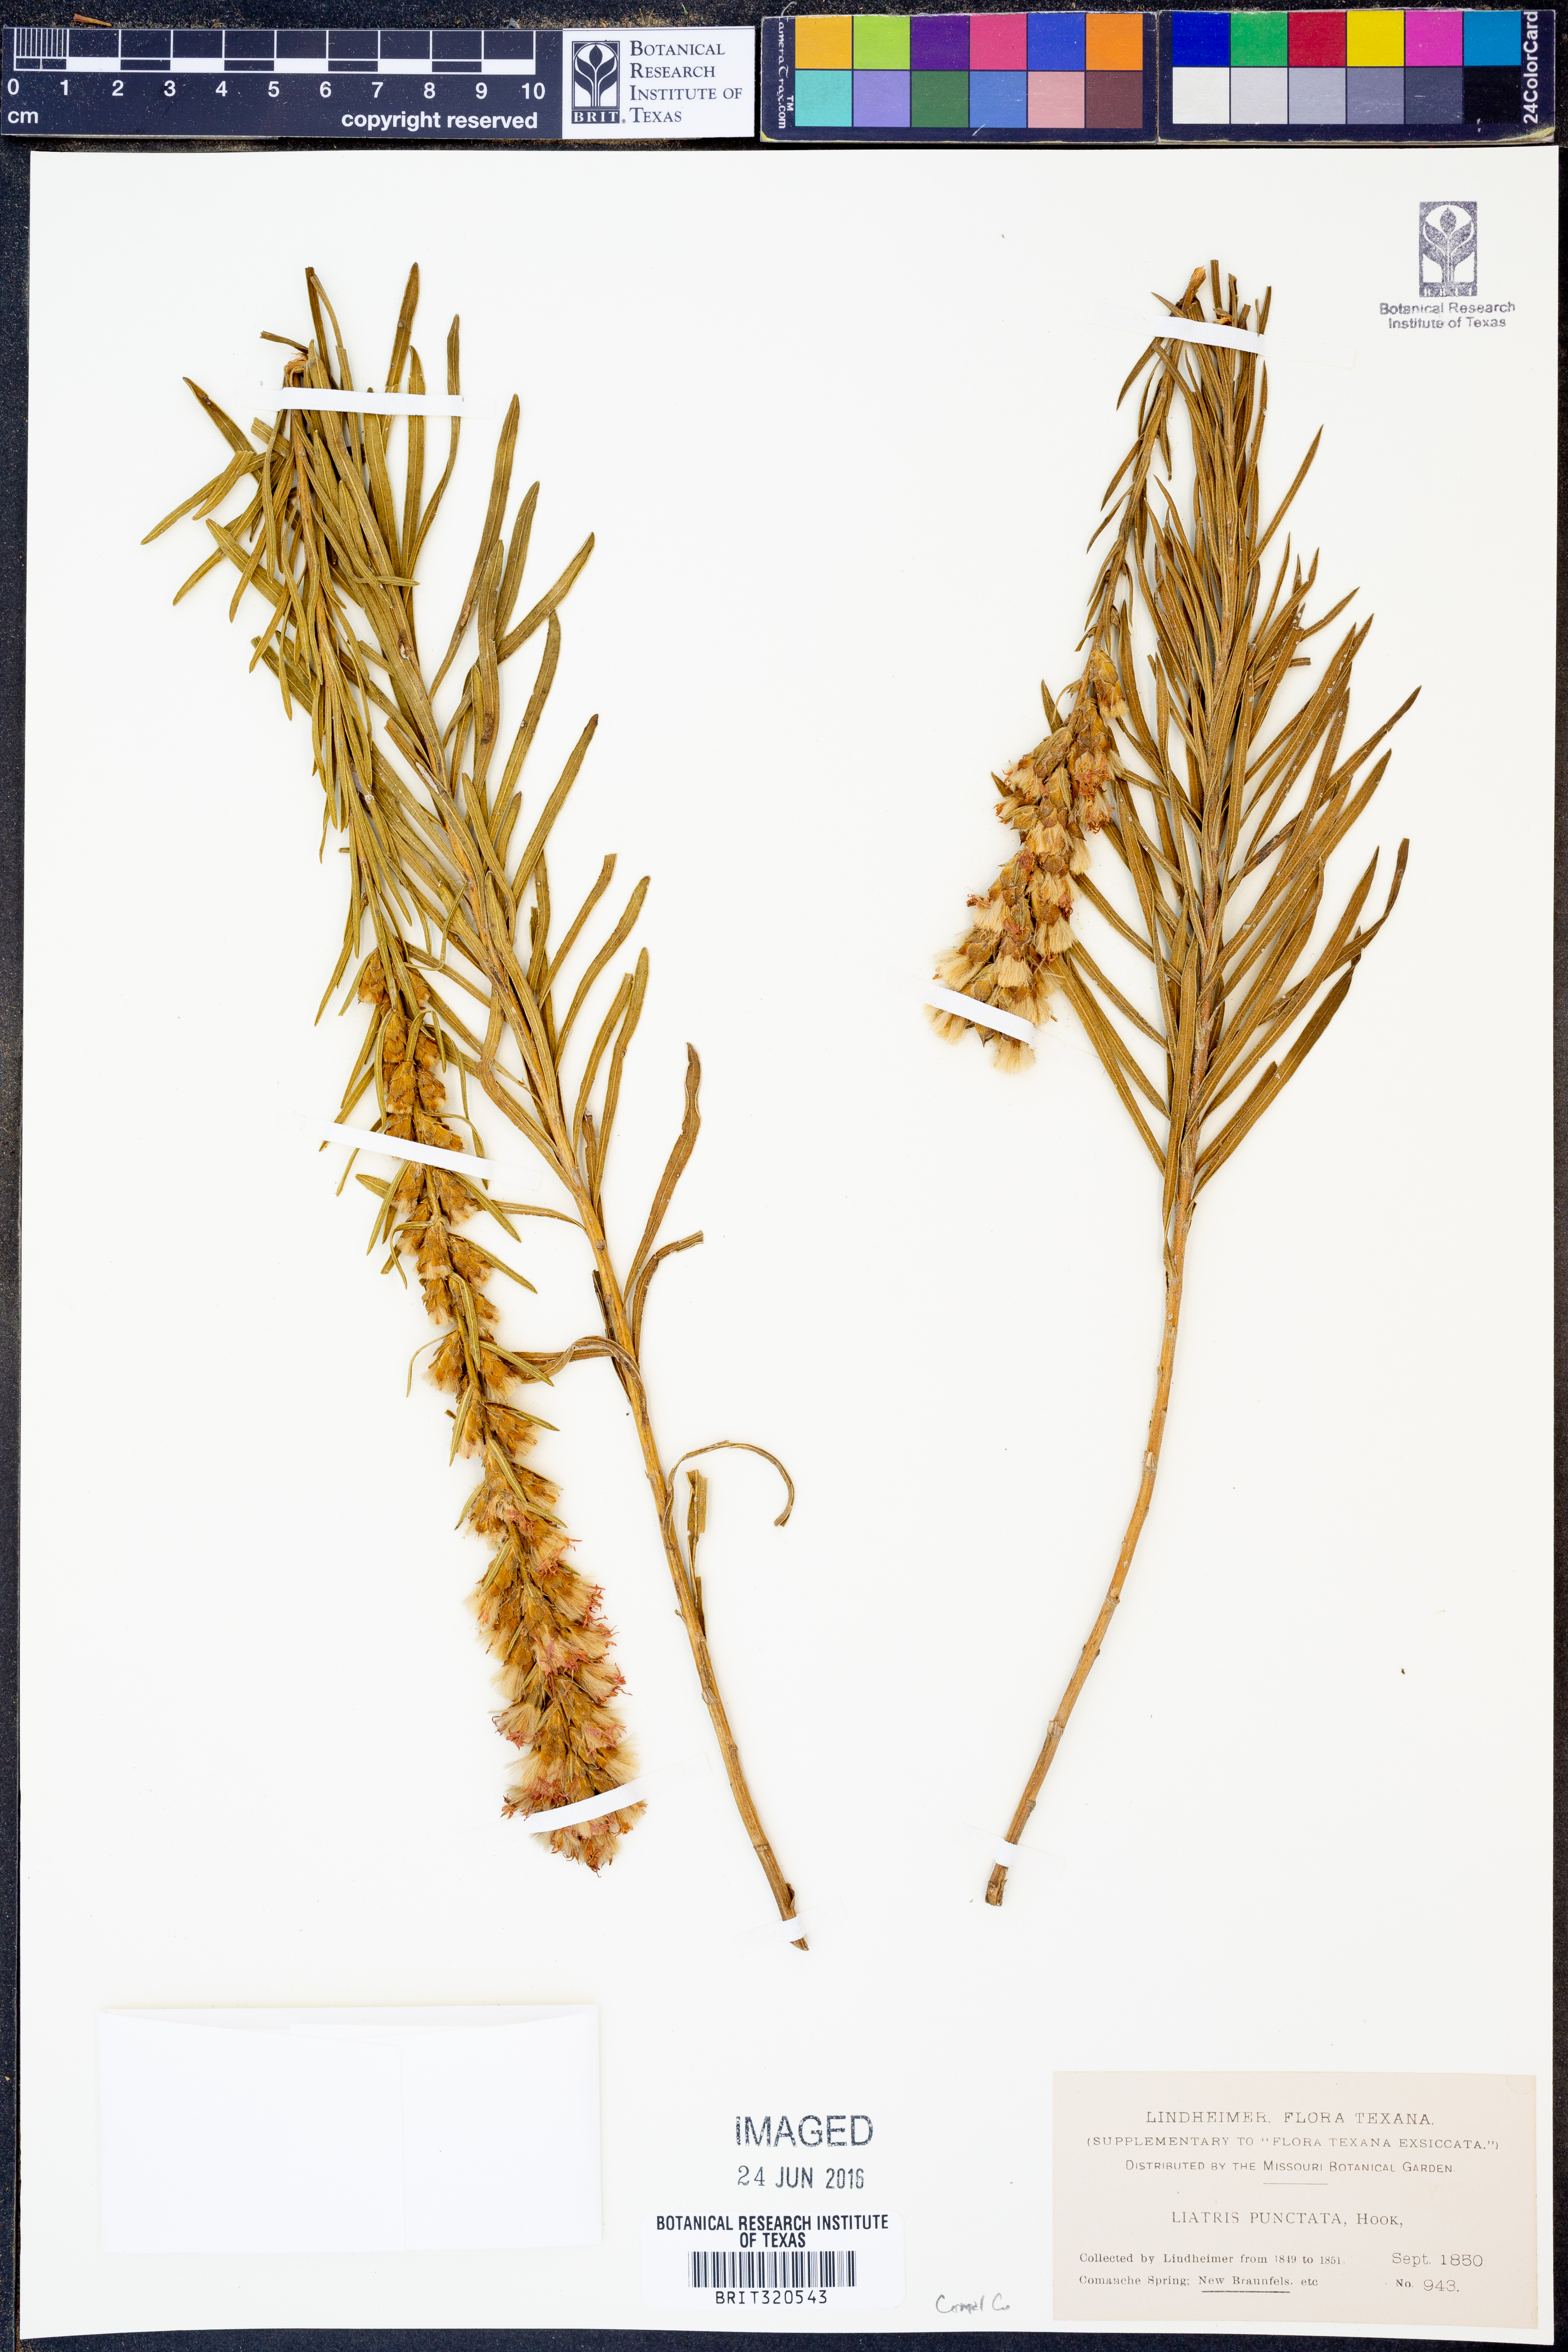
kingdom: Plantae
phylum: Tracheophyta
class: Magnoliopsida
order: Asterales
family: Asteraceae
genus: Liatris
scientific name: Liatris punctata
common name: Dotted gayfeather
